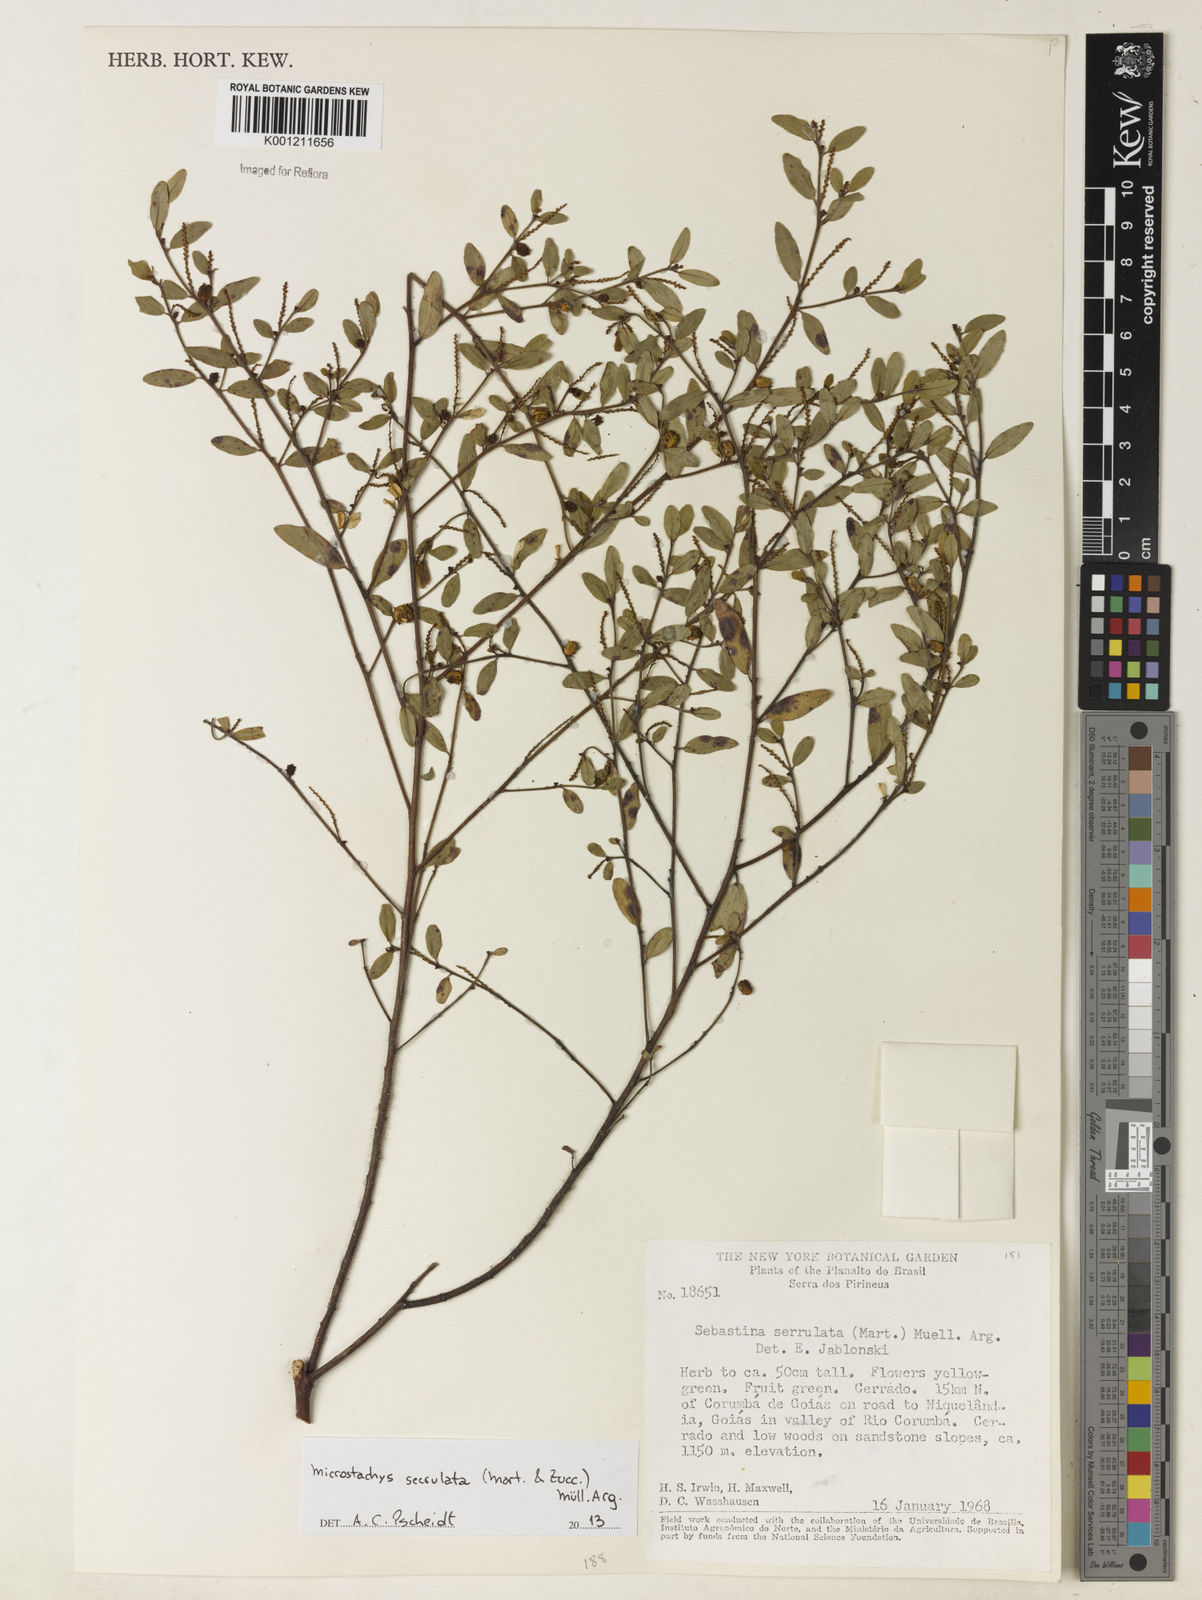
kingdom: Plantae
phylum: Tracheophyta
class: Magnoliopsida
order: Malpighiales
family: Euphorbiaceae
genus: Microstachys
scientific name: Microstachys
